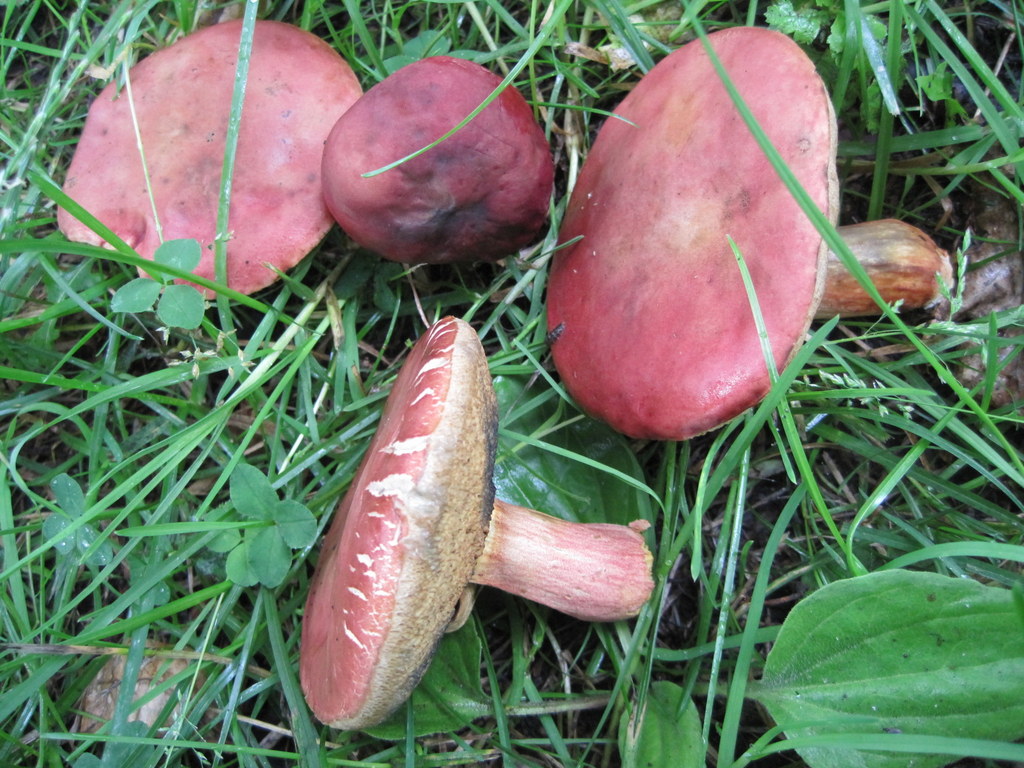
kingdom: Fungi
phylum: Basidiomycota
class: Agaricomycetes
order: Boletales
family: Boletaceae
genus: Hortiboletus
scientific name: Hortiboletus rubellus
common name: blodrød rørhat
